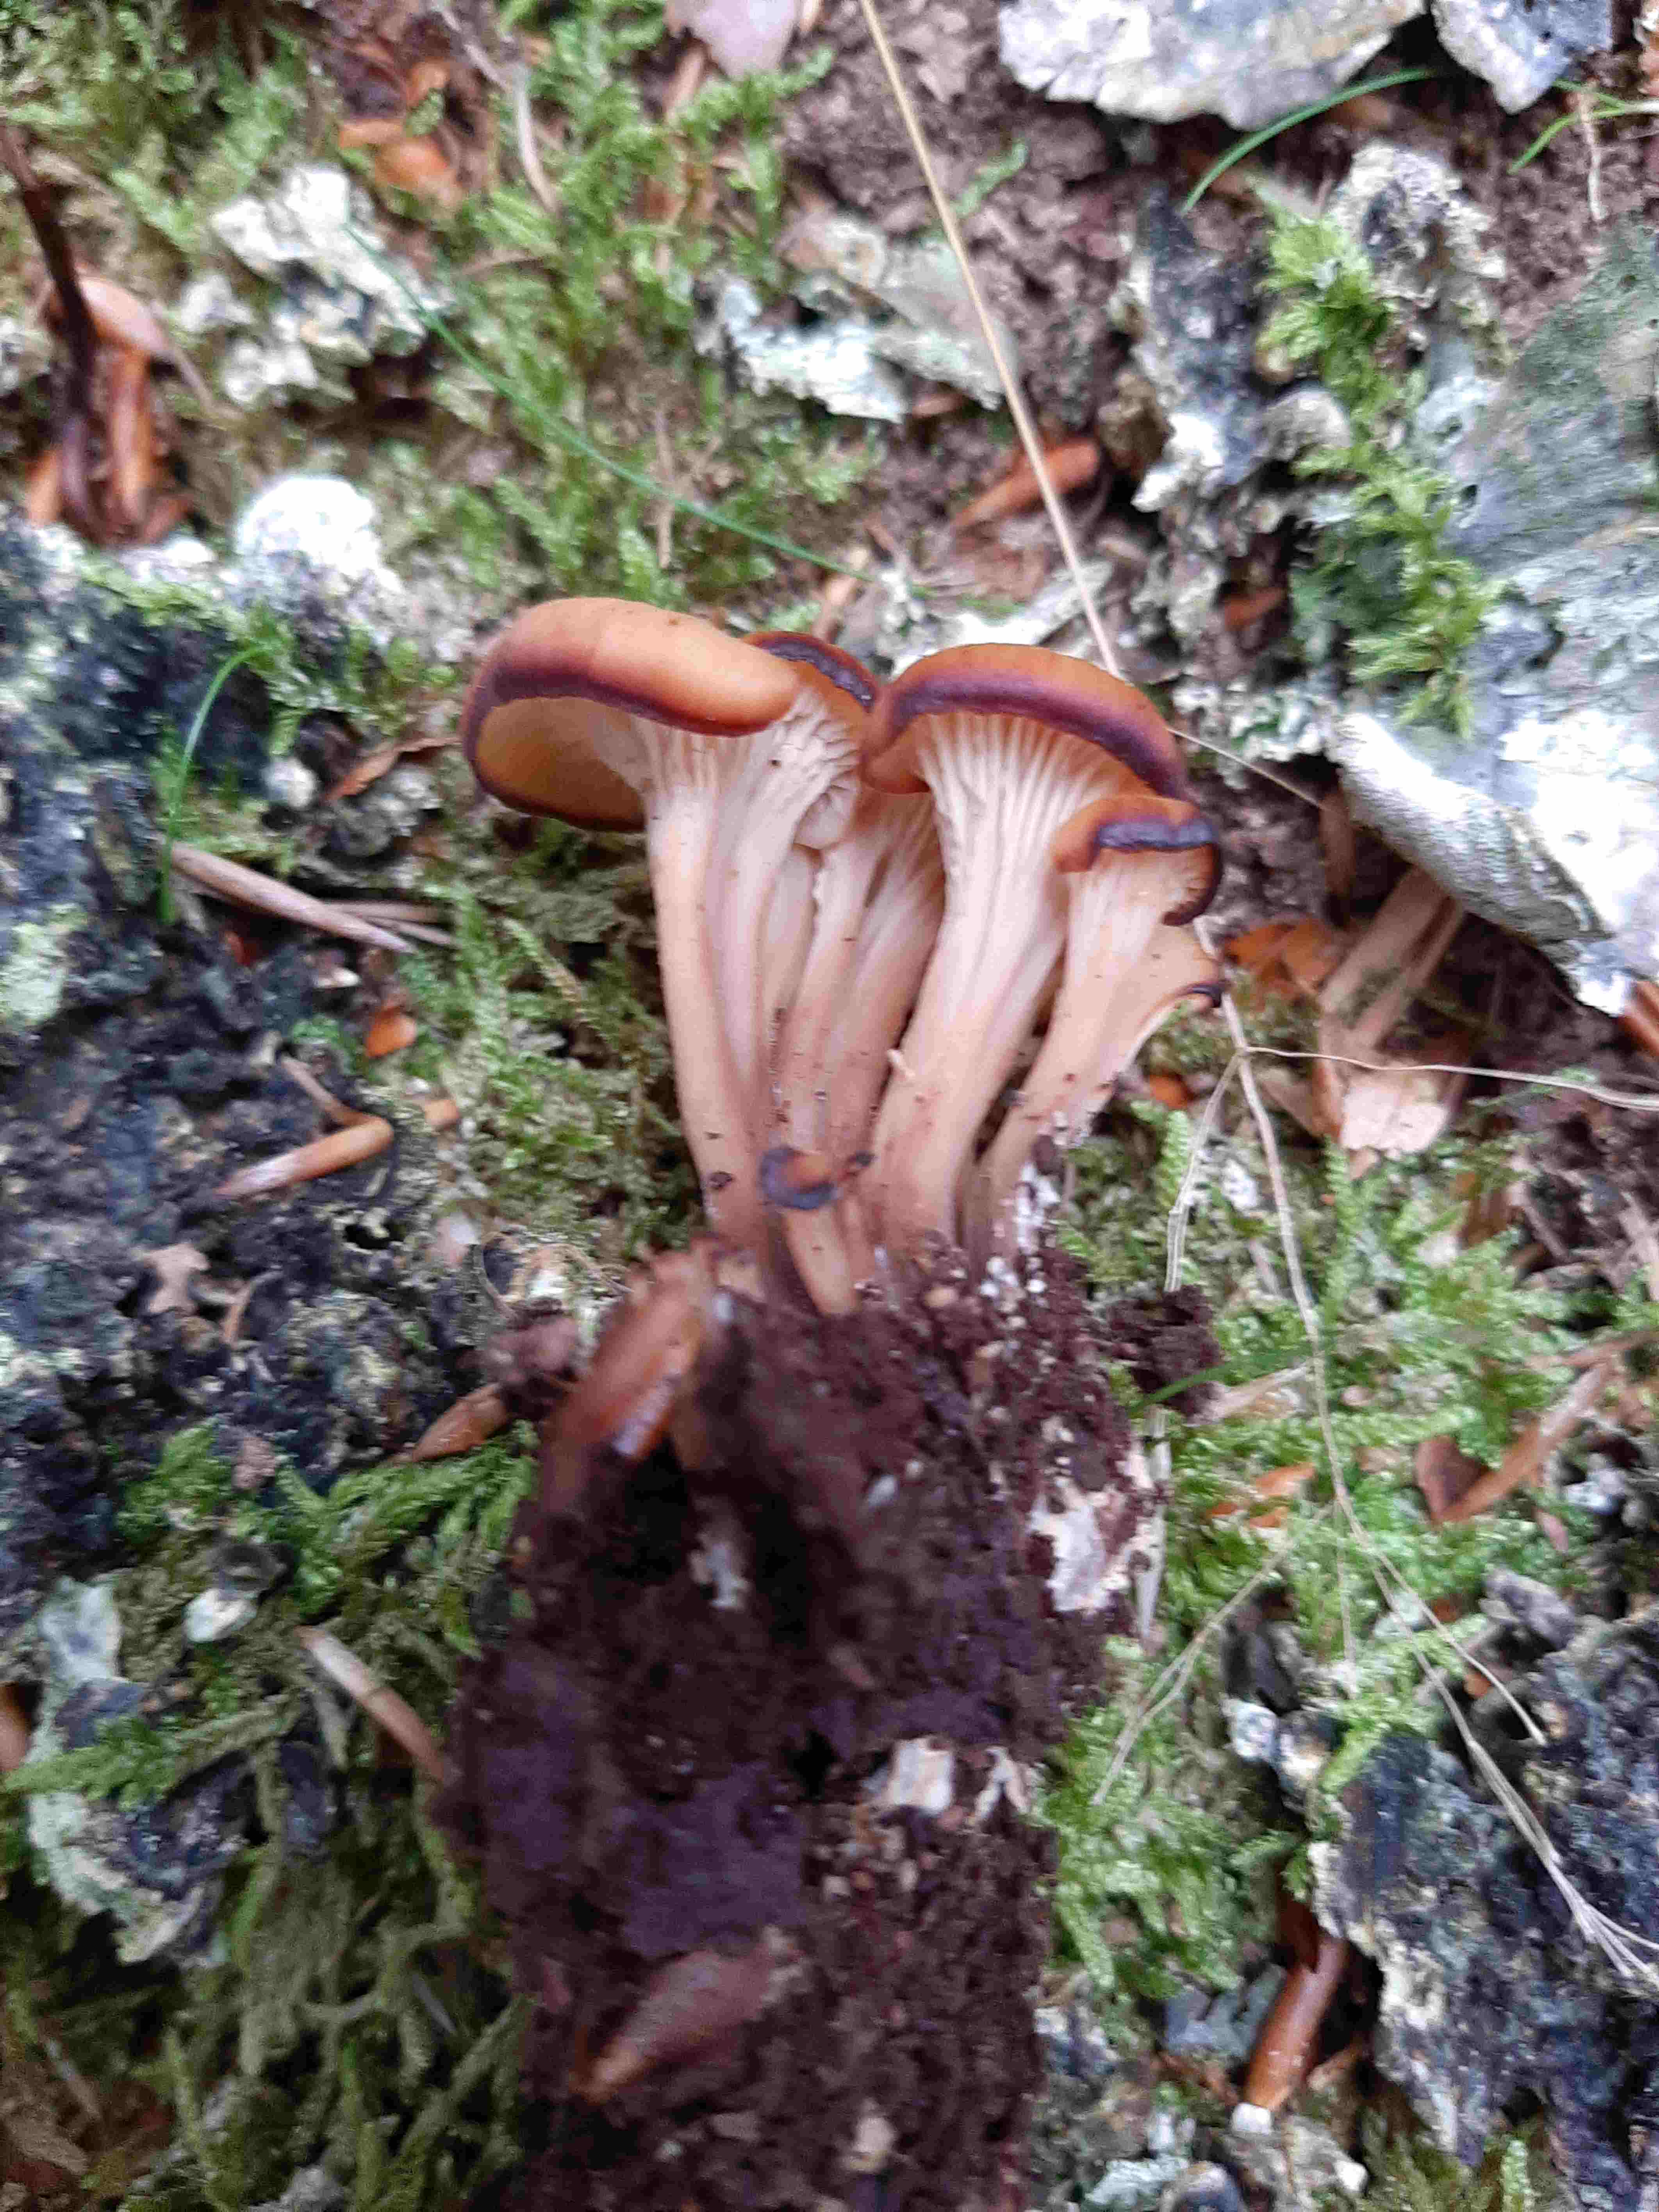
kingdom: Fungi
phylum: Basidiomycota
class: Agaricomycetes
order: Russulales
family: Auriscalpiaceae
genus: Lentinellus
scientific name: Lentinellus cochleatus
